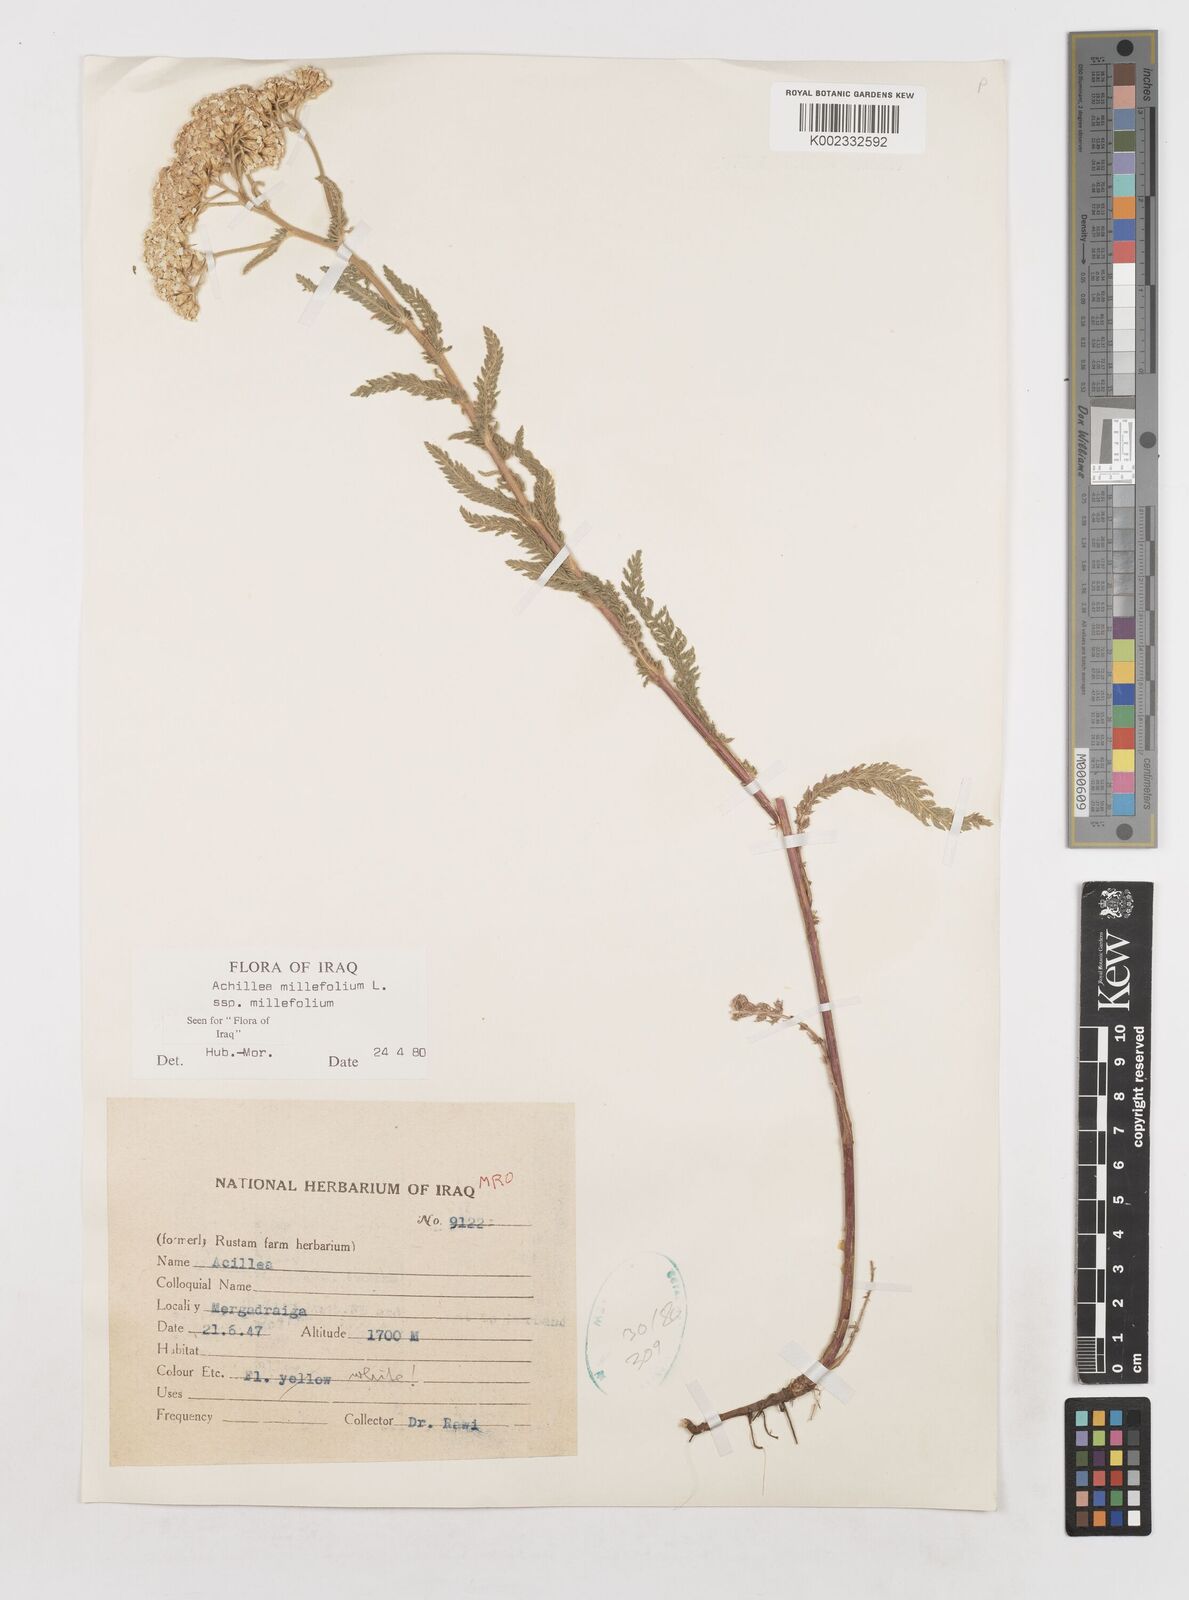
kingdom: Plantae
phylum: Tracheophyta
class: Magnoliopsida
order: Asterales
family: Asteraceae
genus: Achillea
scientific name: Achillea millefolium
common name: Yarrow
